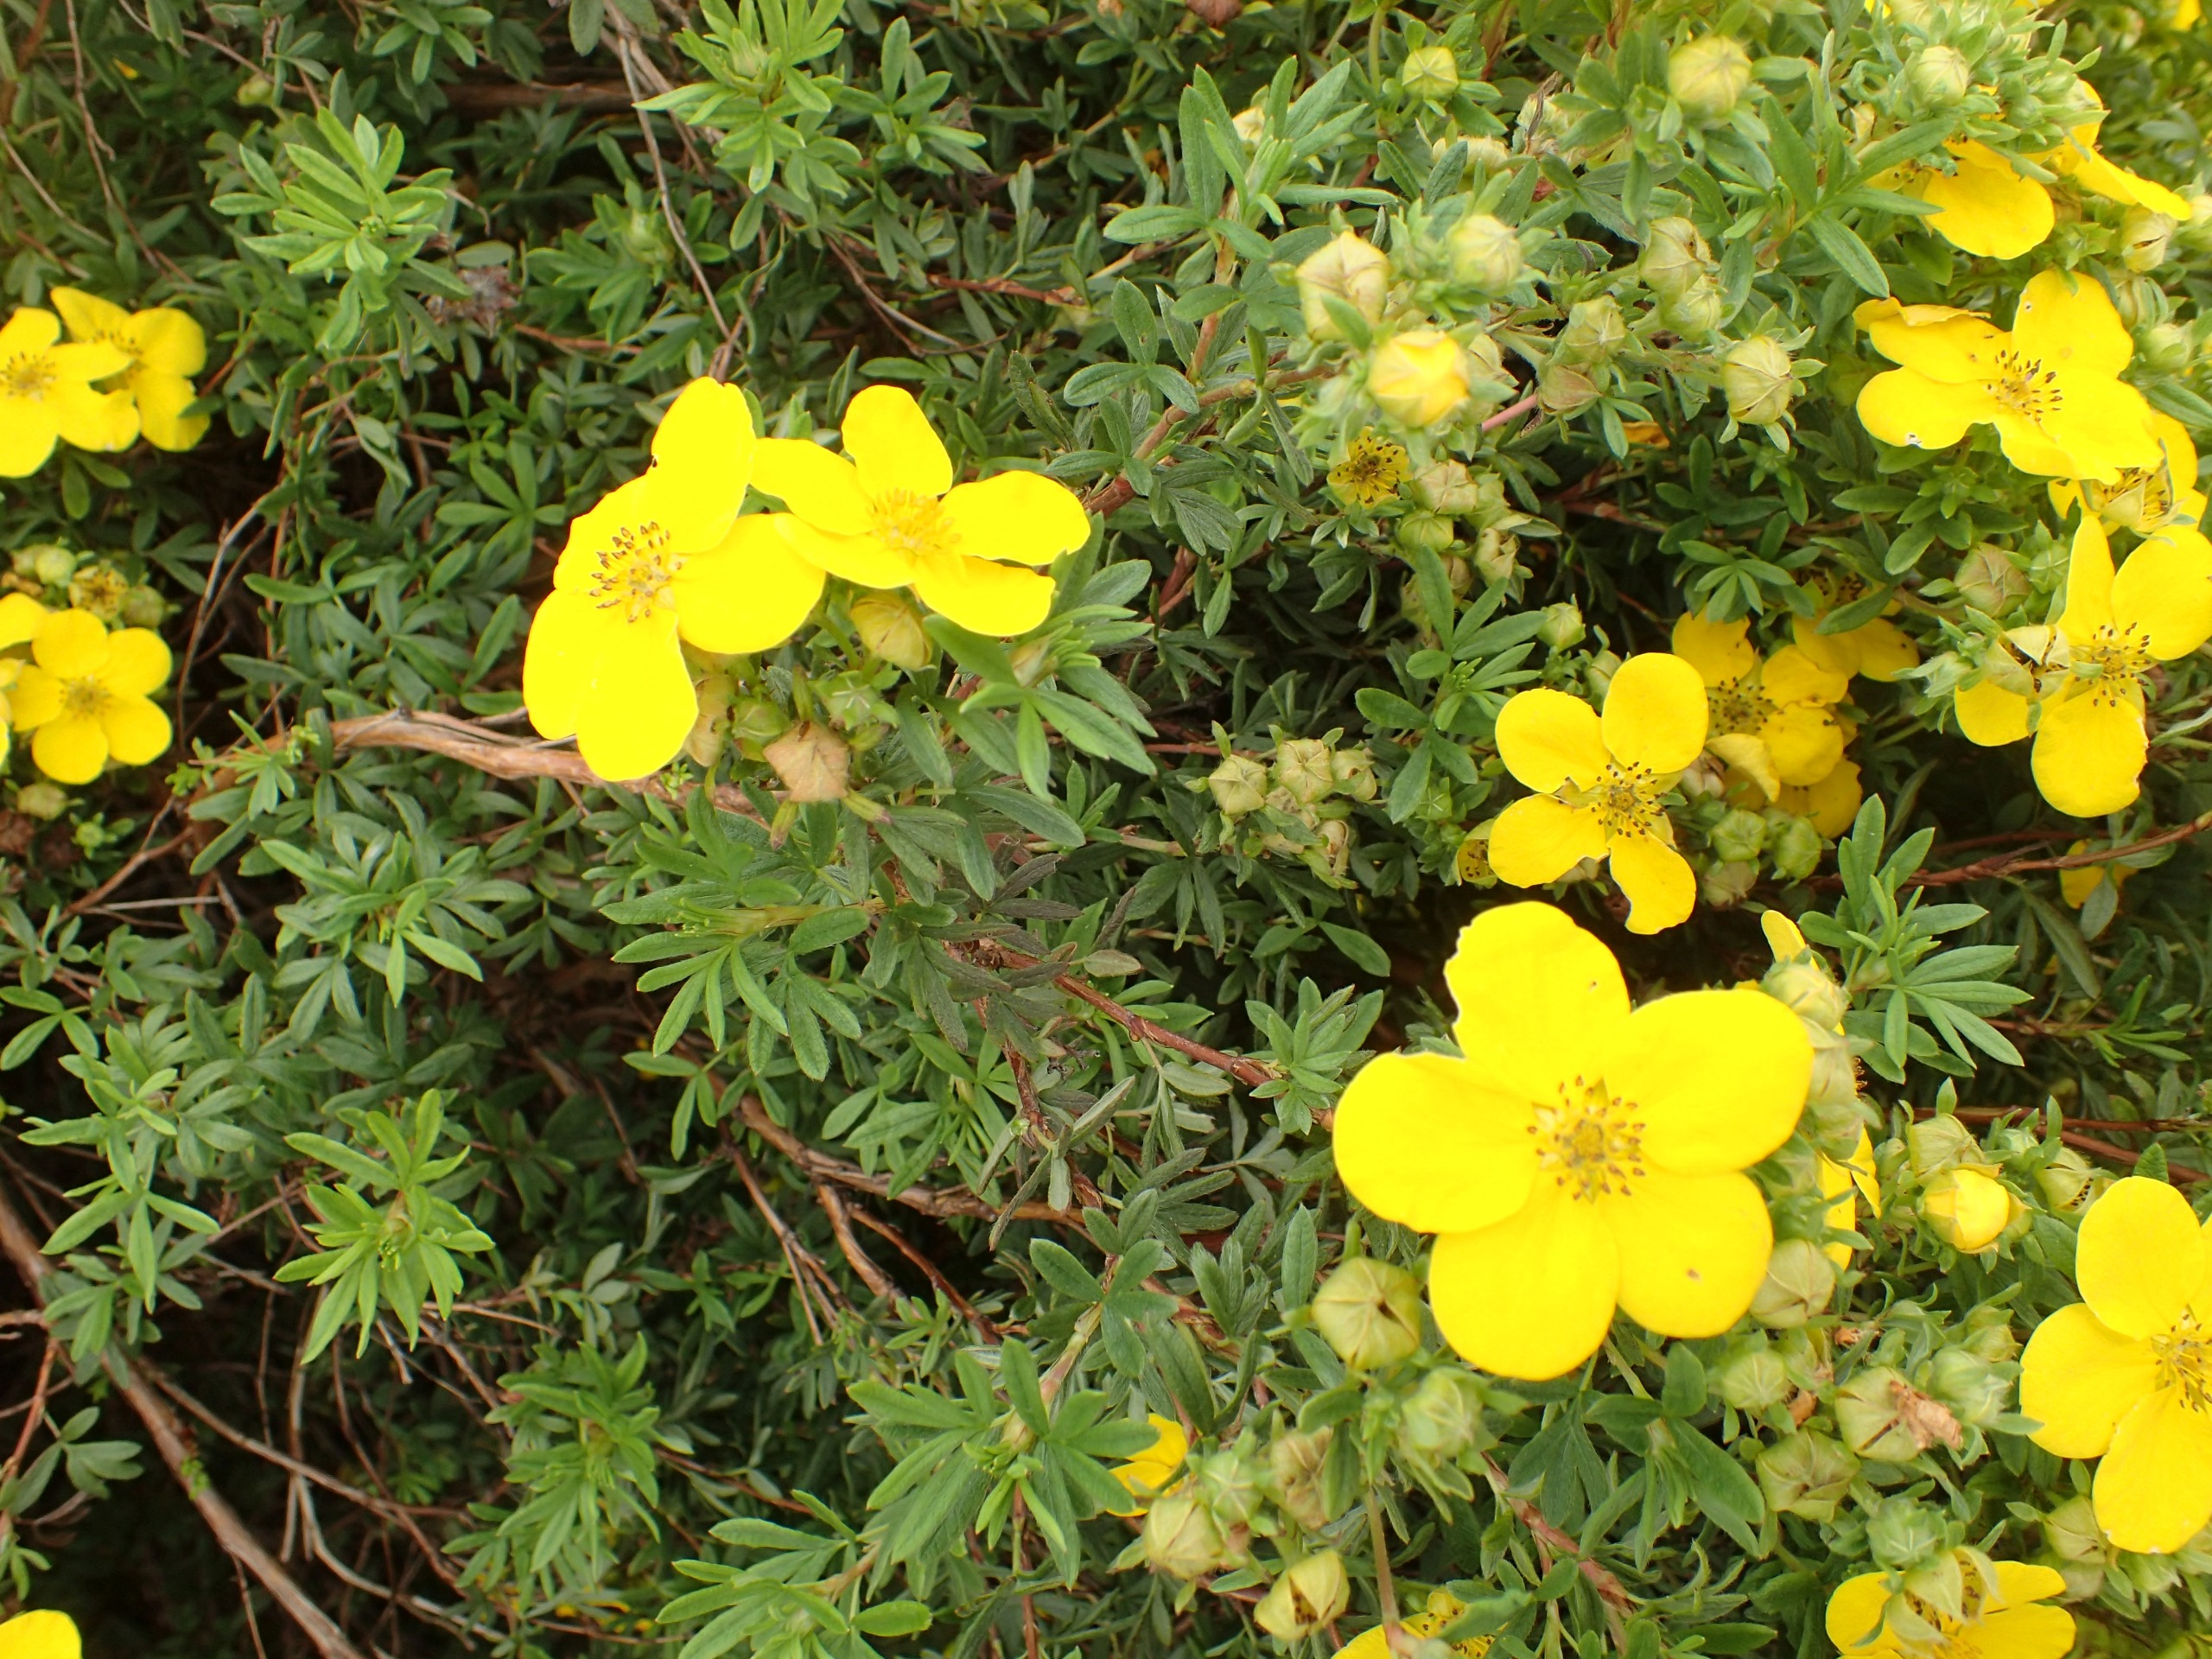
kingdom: Plantae
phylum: Tracheophyta
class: Magnoliopsida
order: Rosales
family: Rosaceae
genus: Dasiphora
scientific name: Dasiphora fruticosa
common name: Buskpotentil
